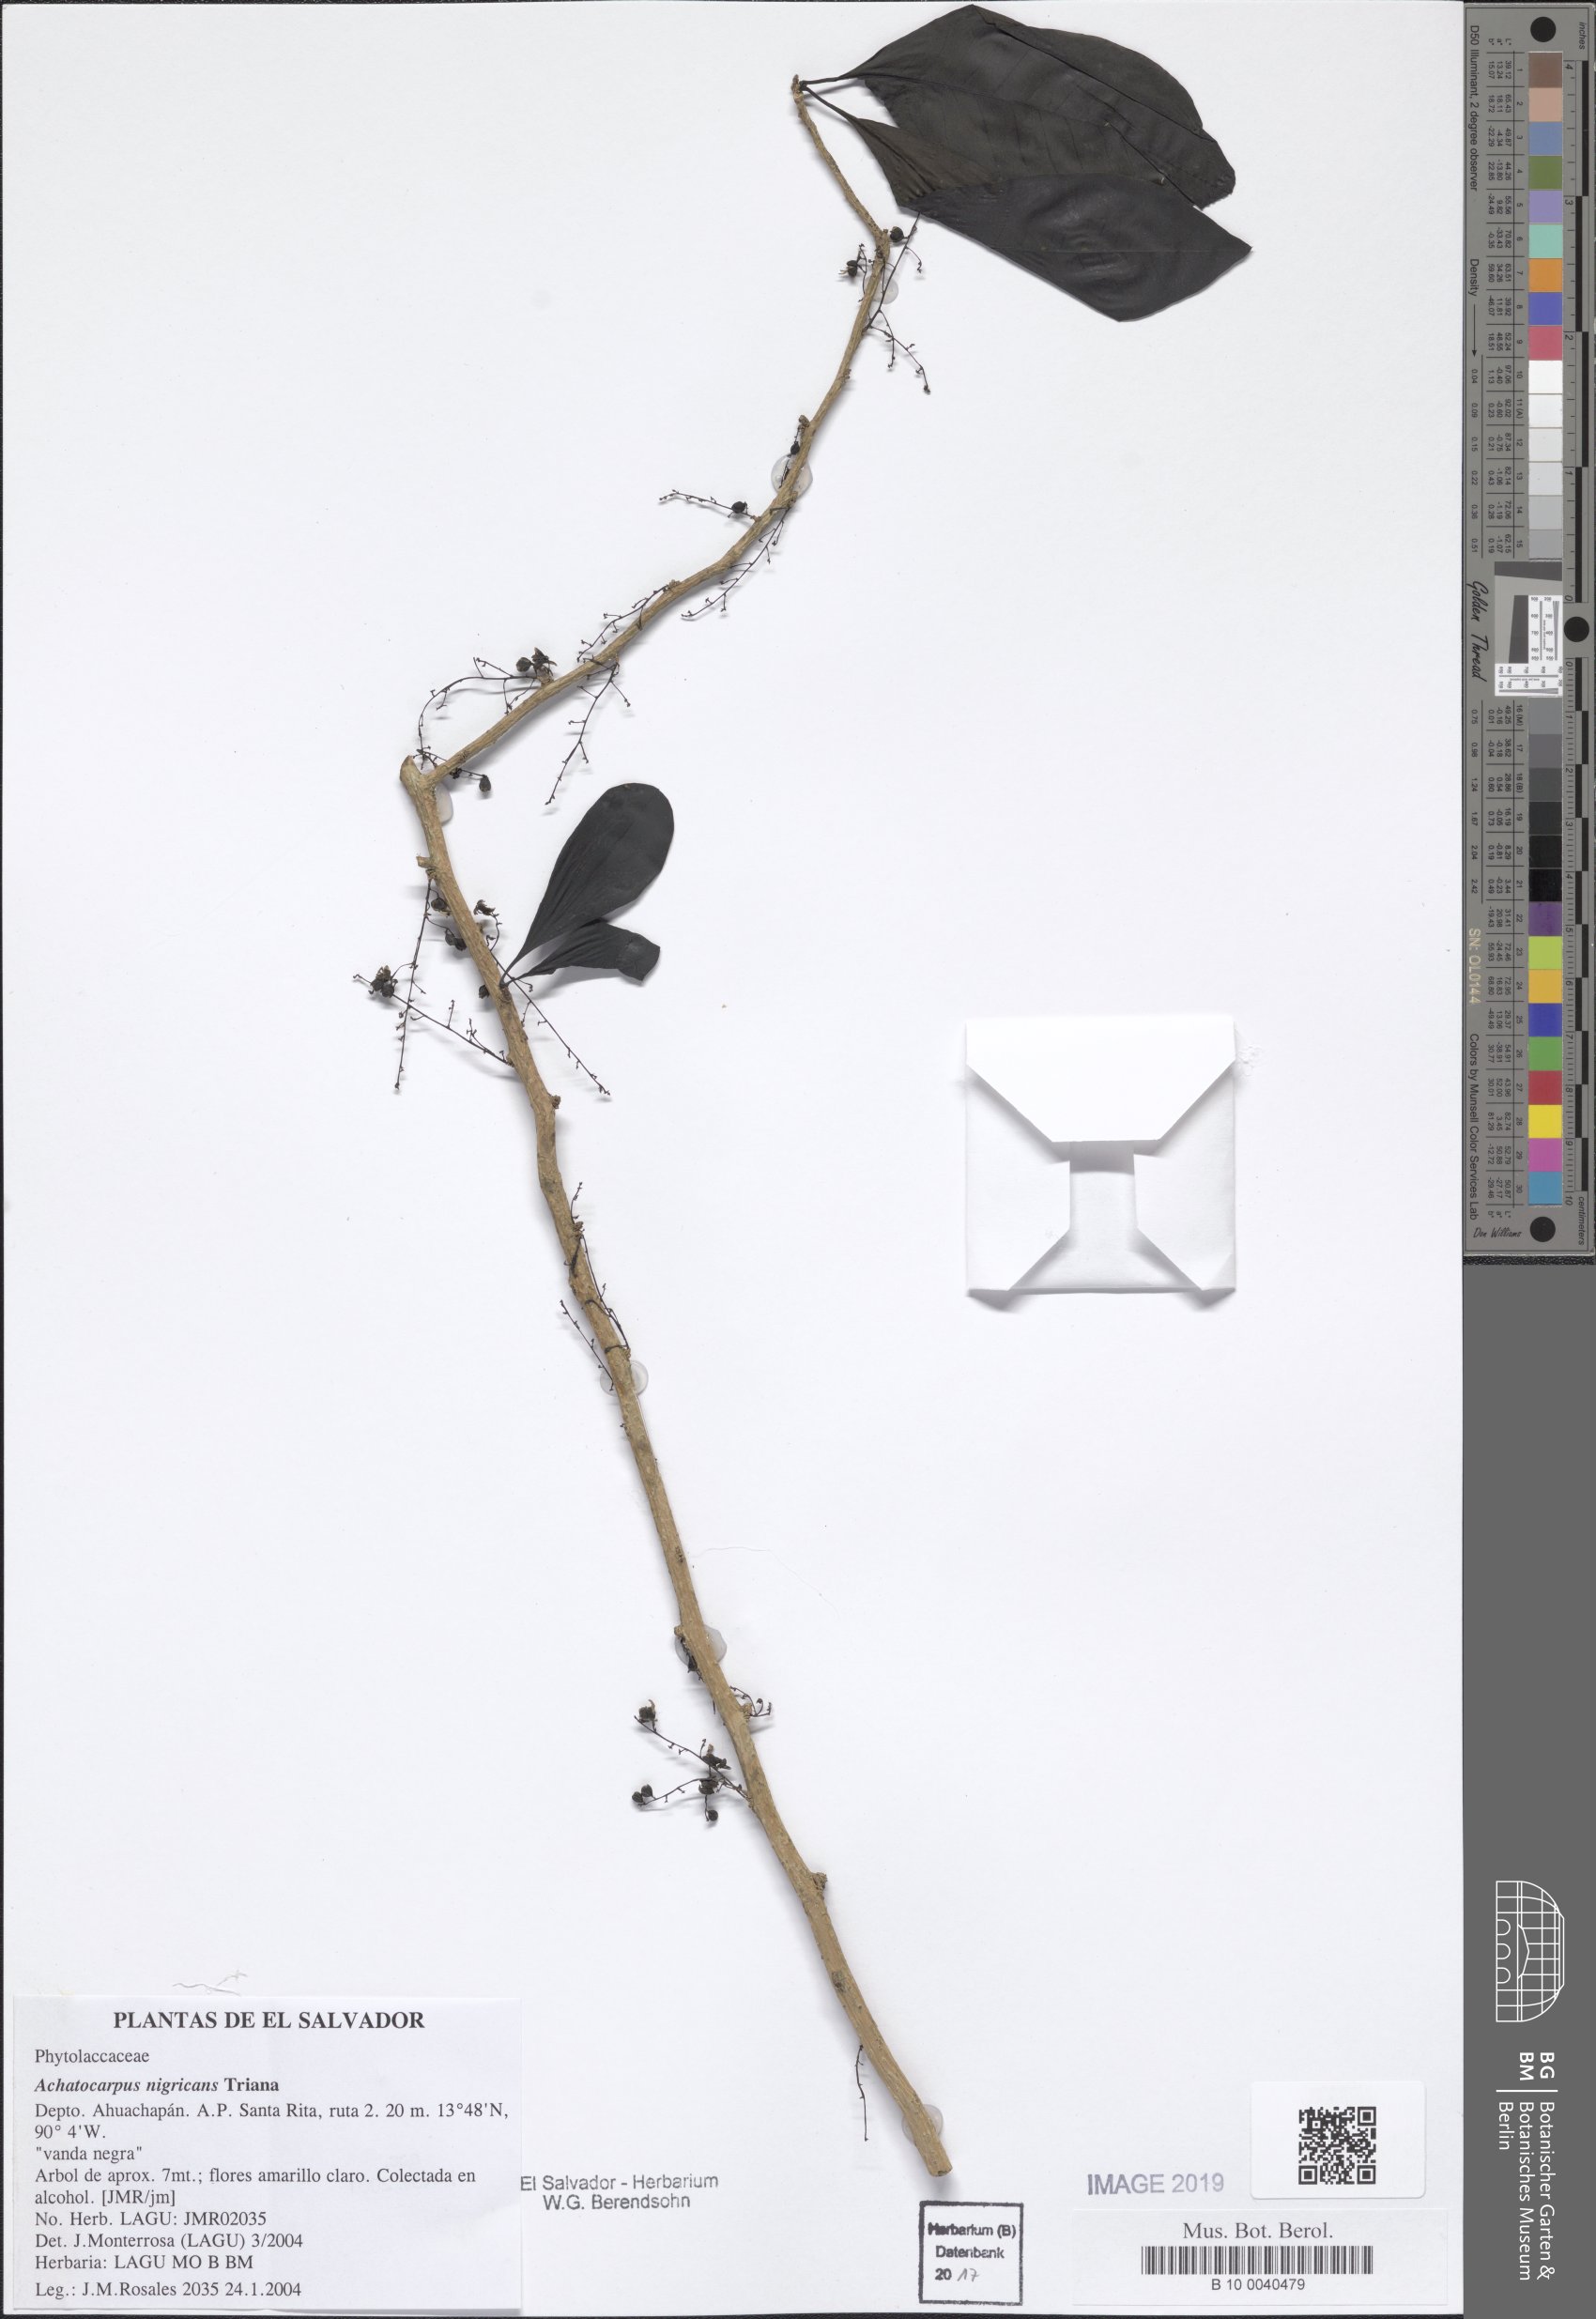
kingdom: Plantae
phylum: Tracheophyta
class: Magnoliopsida
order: Caryophyllales
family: Achatocarpaceae
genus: Achatocarpus
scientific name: Achatocarpus nigricans
